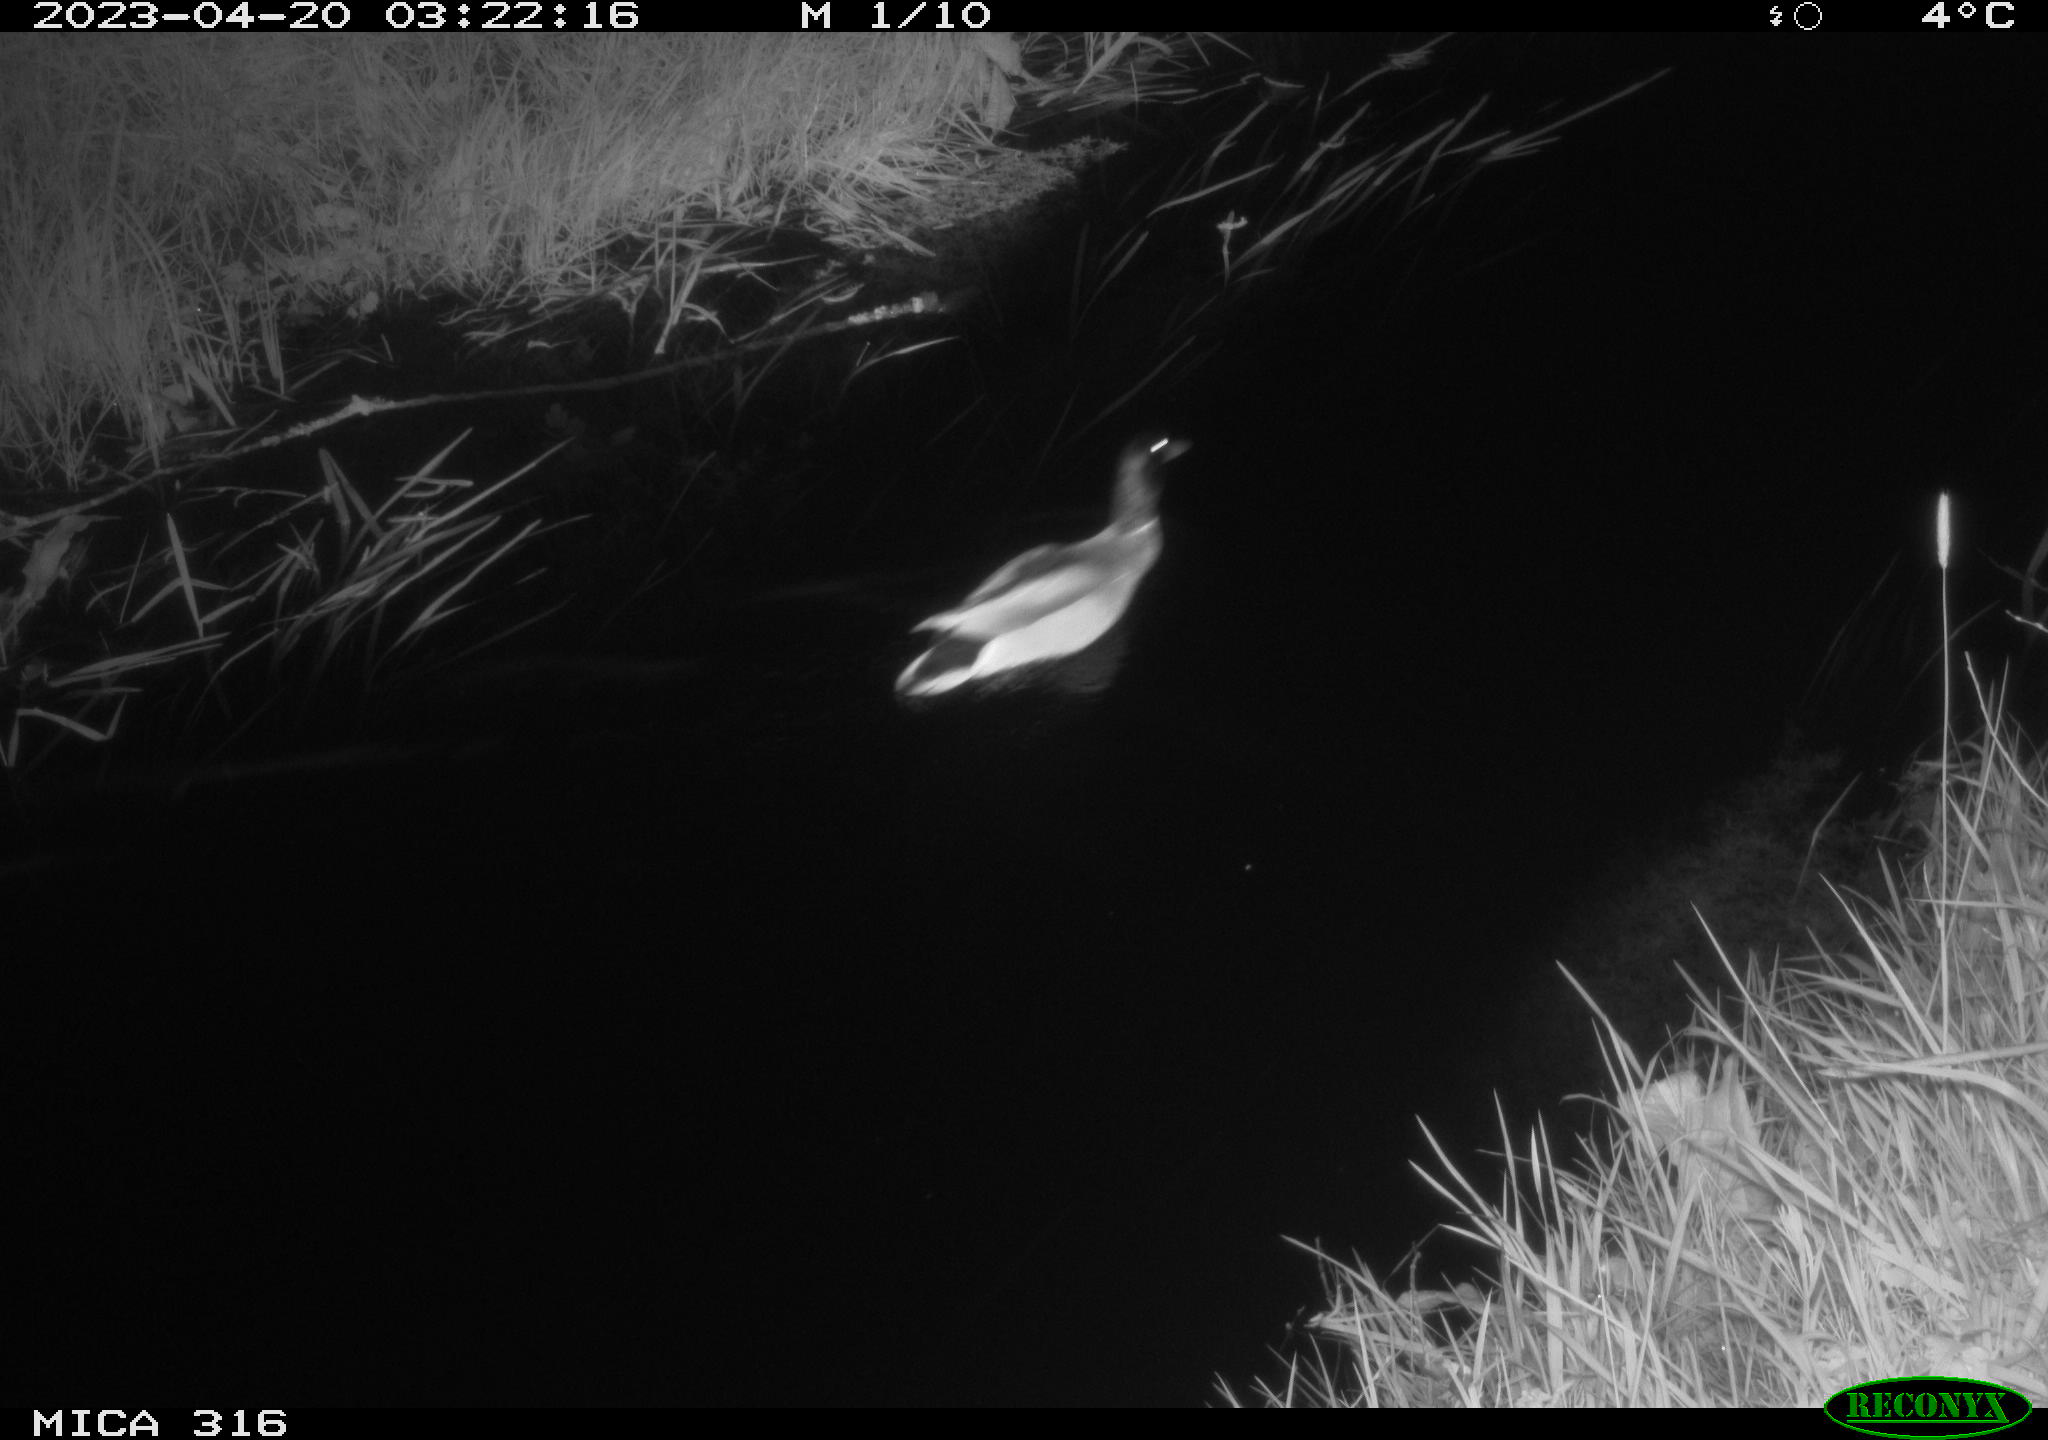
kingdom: Animalia
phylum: Chordata
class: Aves
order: Anseriformes
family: Anatidae
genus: Anas
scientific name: Anas
